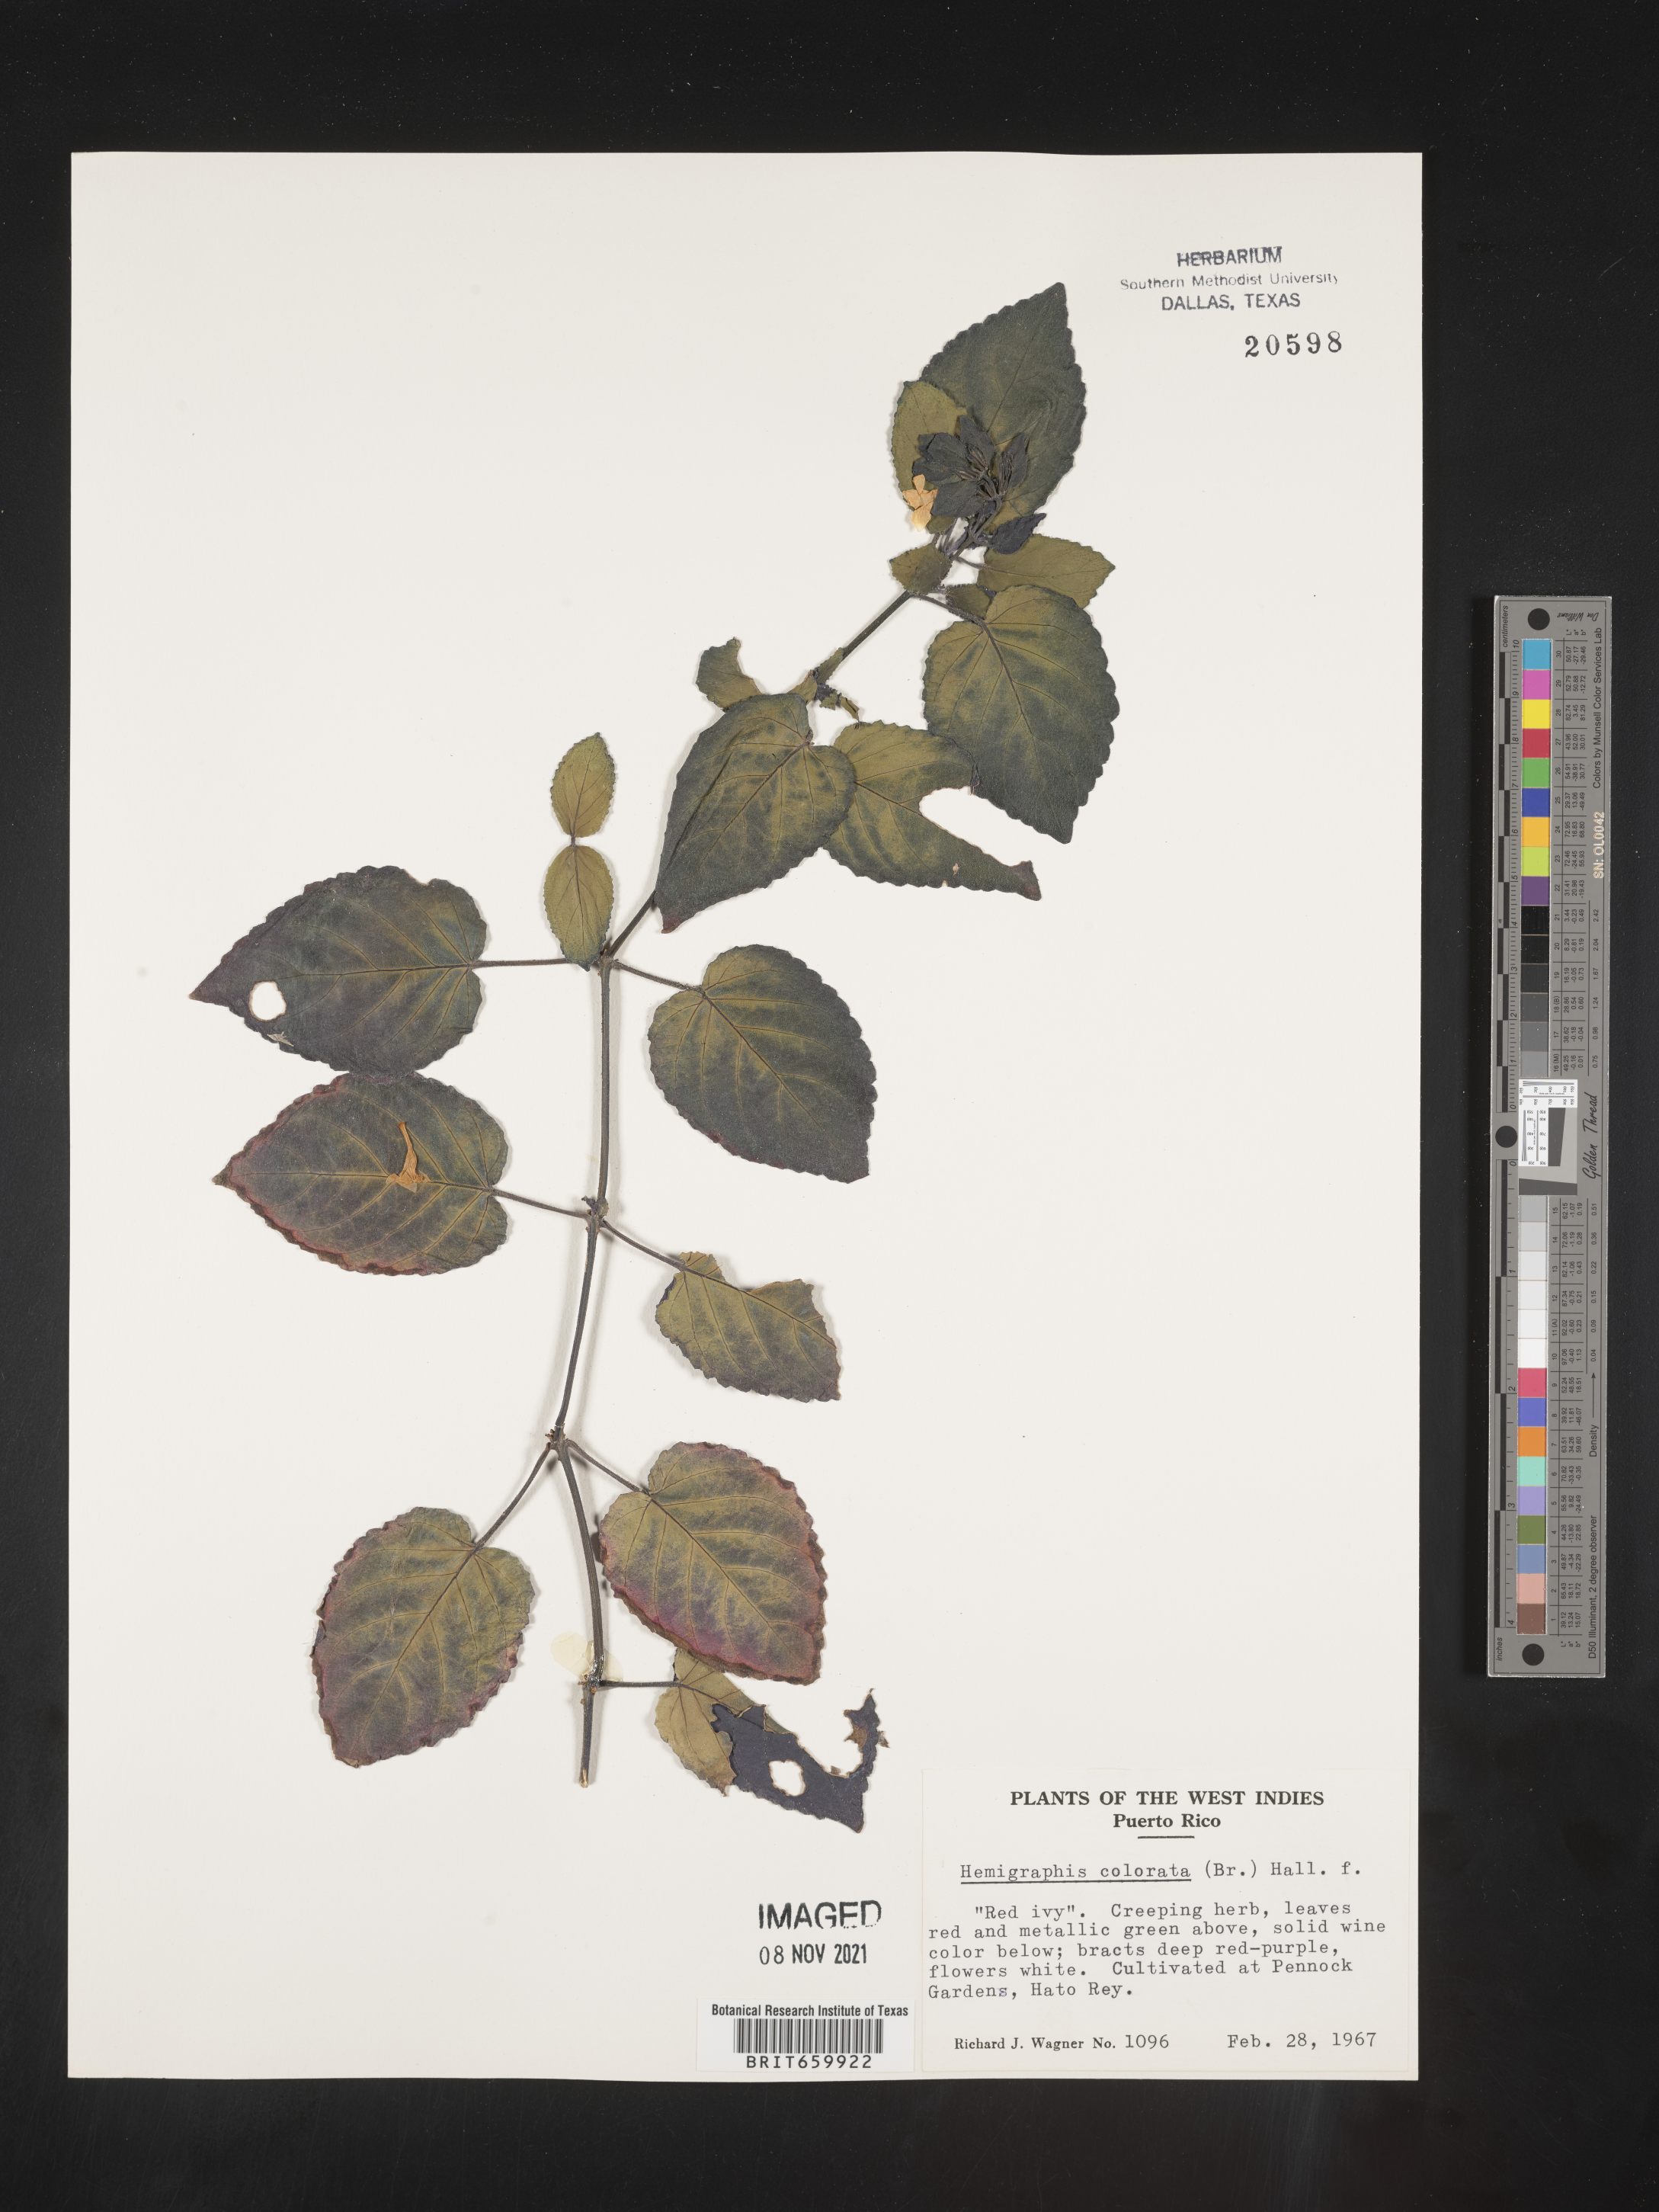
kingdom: Plantae
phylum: Tracheophyta
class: Magnoliopsida
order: Lamiales
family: Acanthaceae
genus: Hemigraphis
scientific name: Hemigraphis
